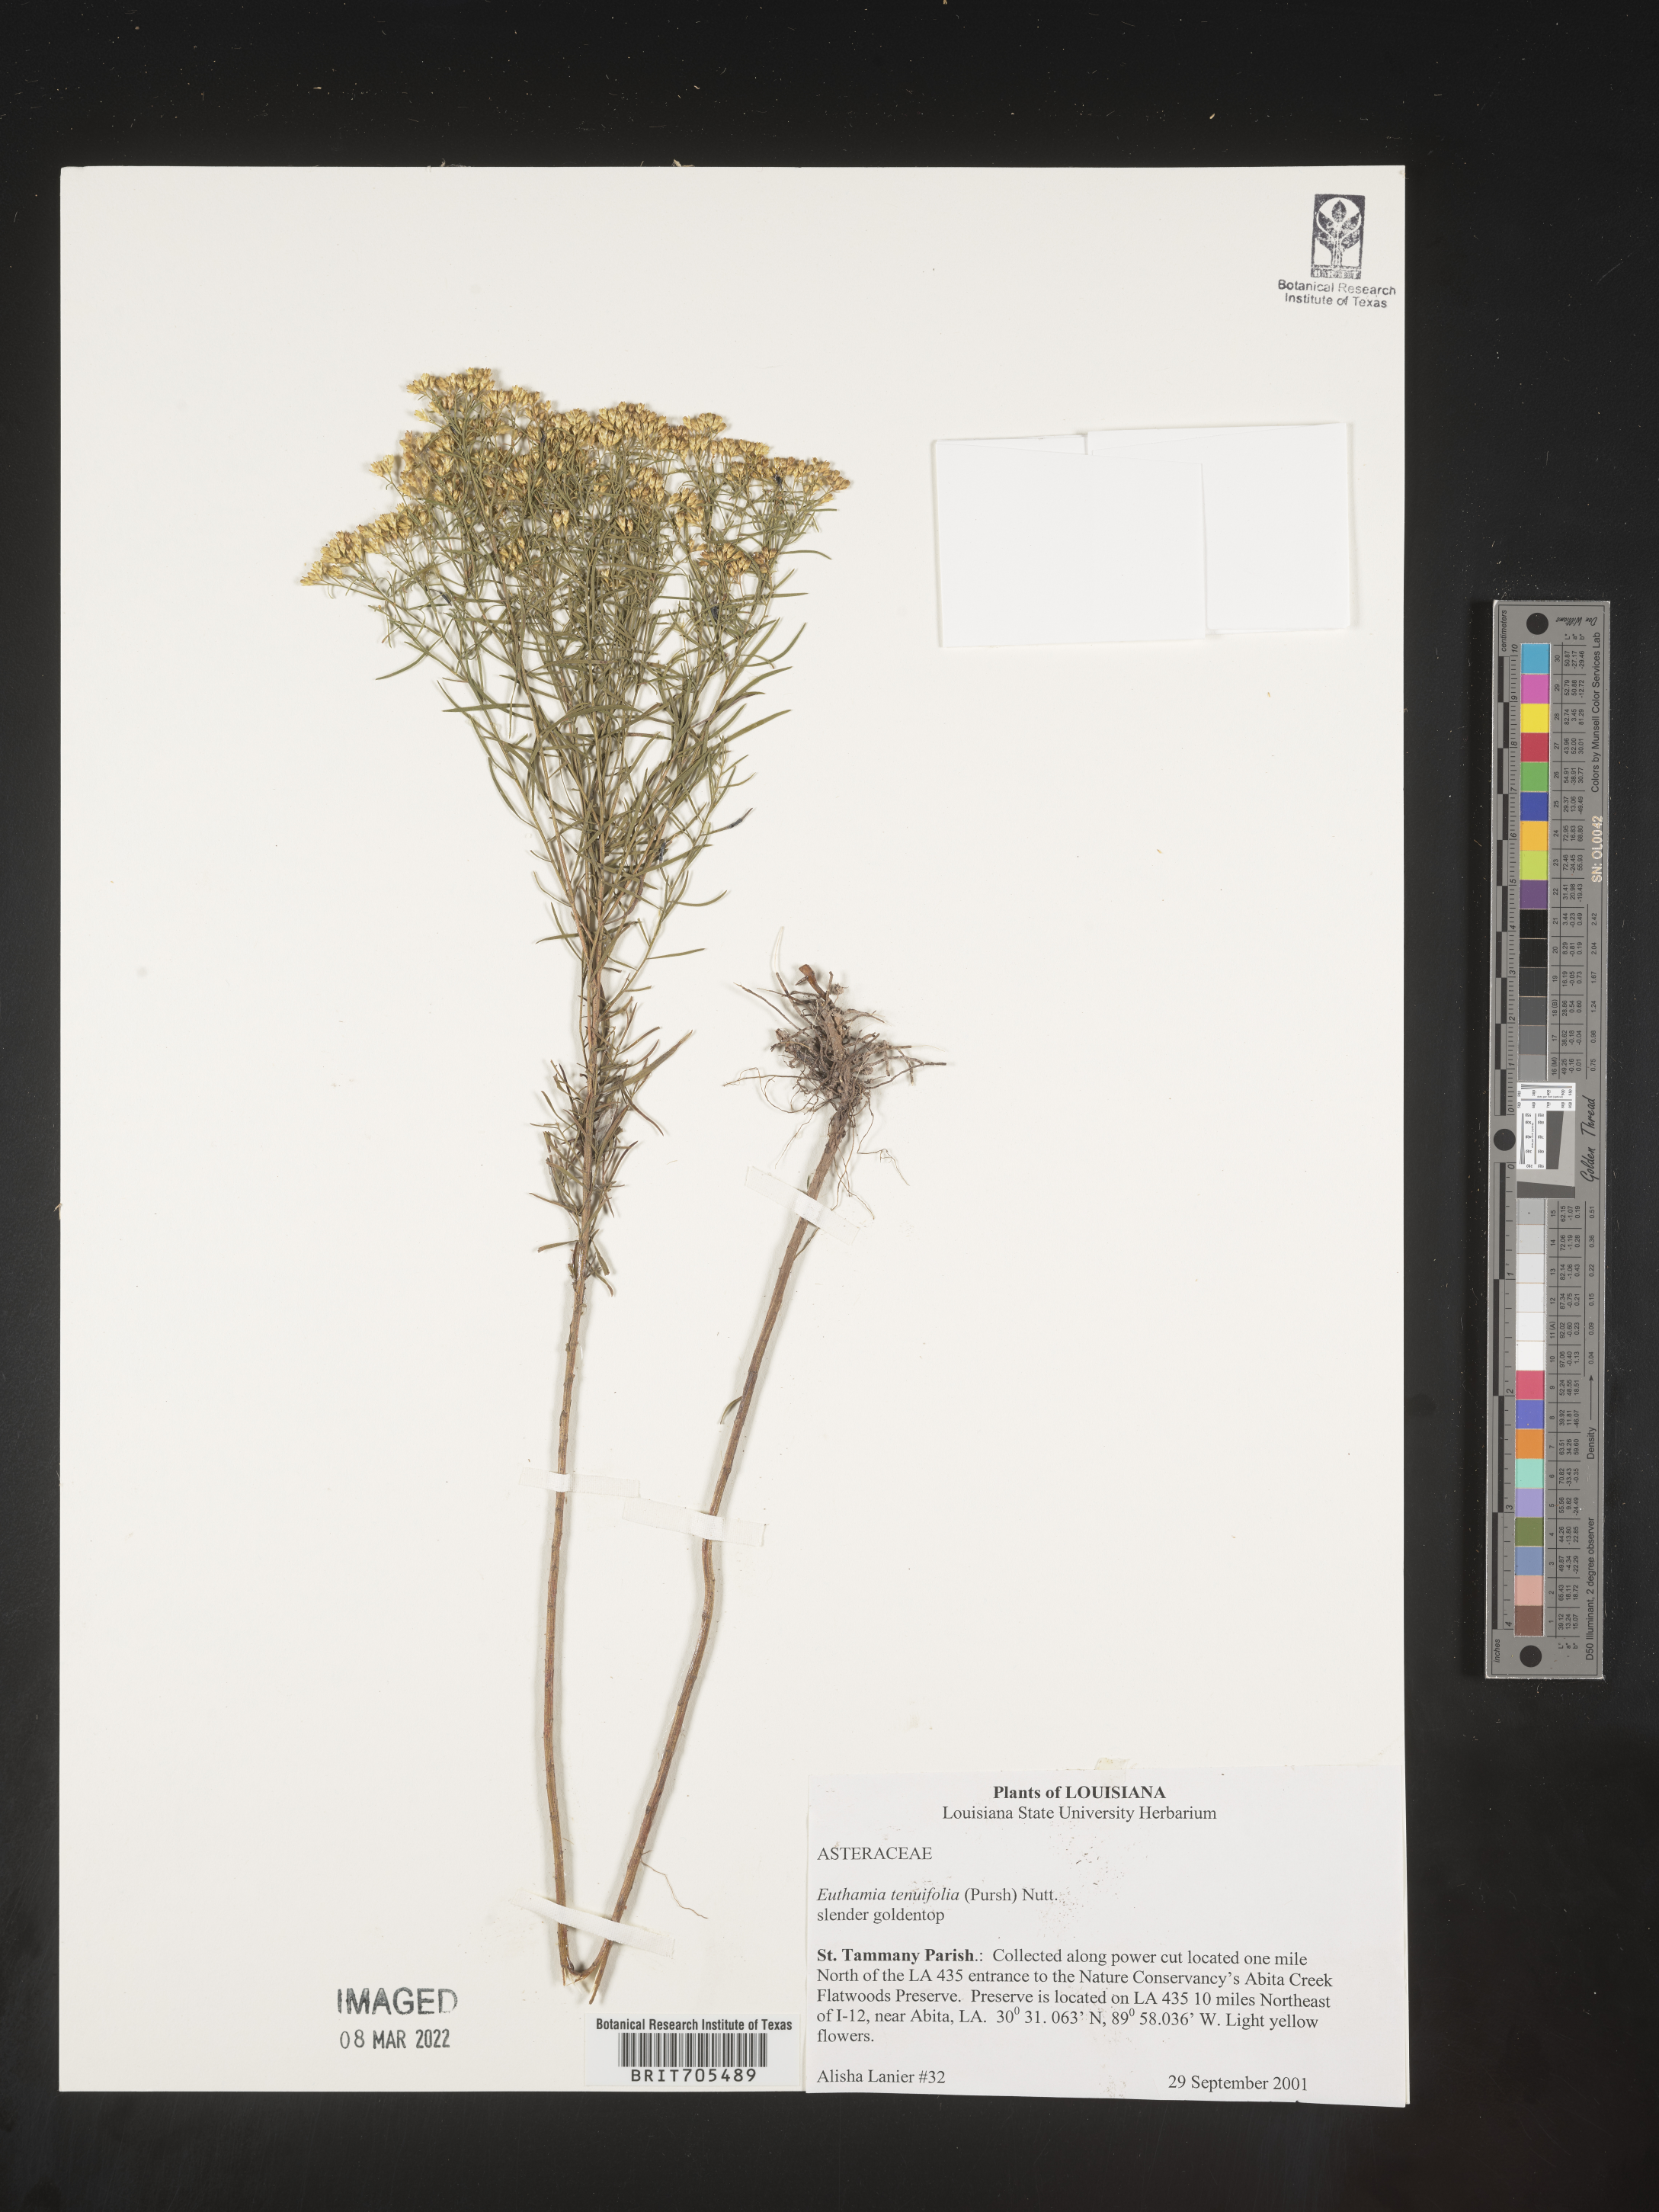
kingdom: Plantae
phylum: Tracheophyta
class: Magnoliopsida
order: Asterales
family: Asteraceae
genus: Euthamia
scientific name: Euthamia caroliniana
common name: Coastal plain goldentop
